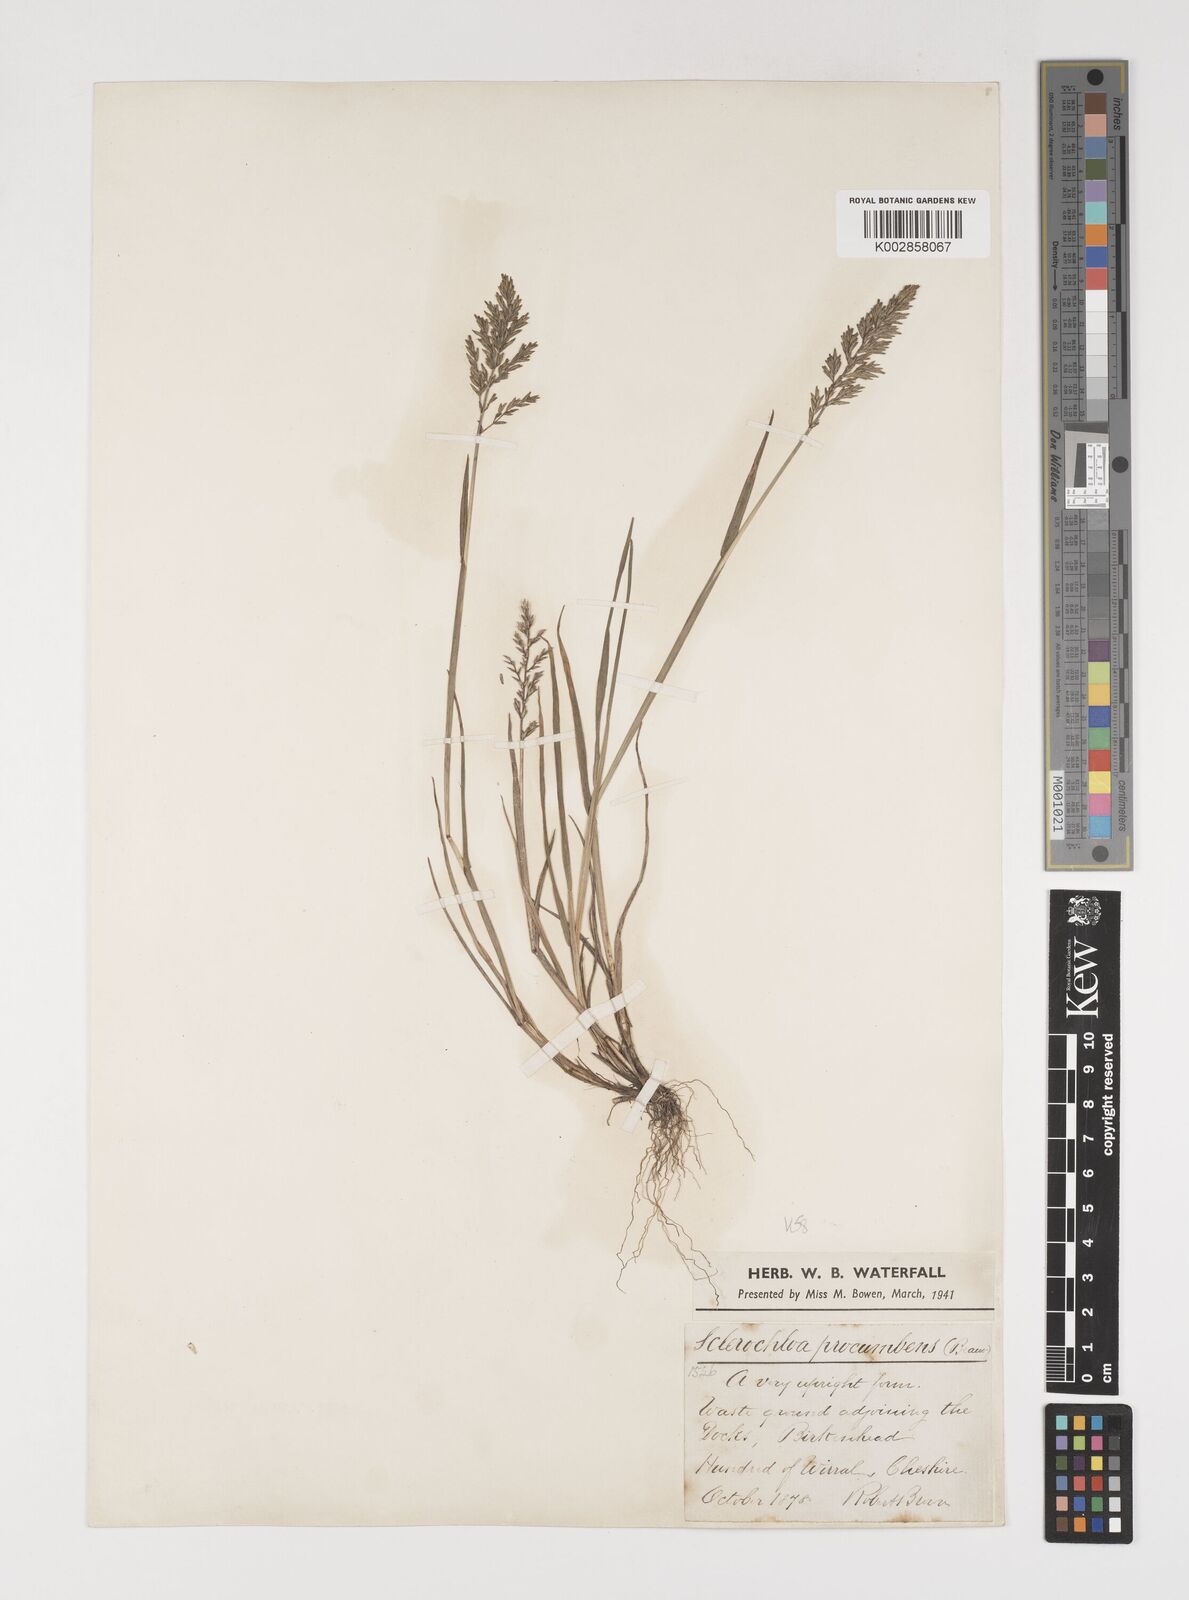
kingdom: Plantae
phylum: Tracheophyta
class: Liliopsida
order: Poales
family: Poaceae
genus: Puccinellia
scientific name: Puccinellia rupestris
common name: Stiff saltmarsh-grass
